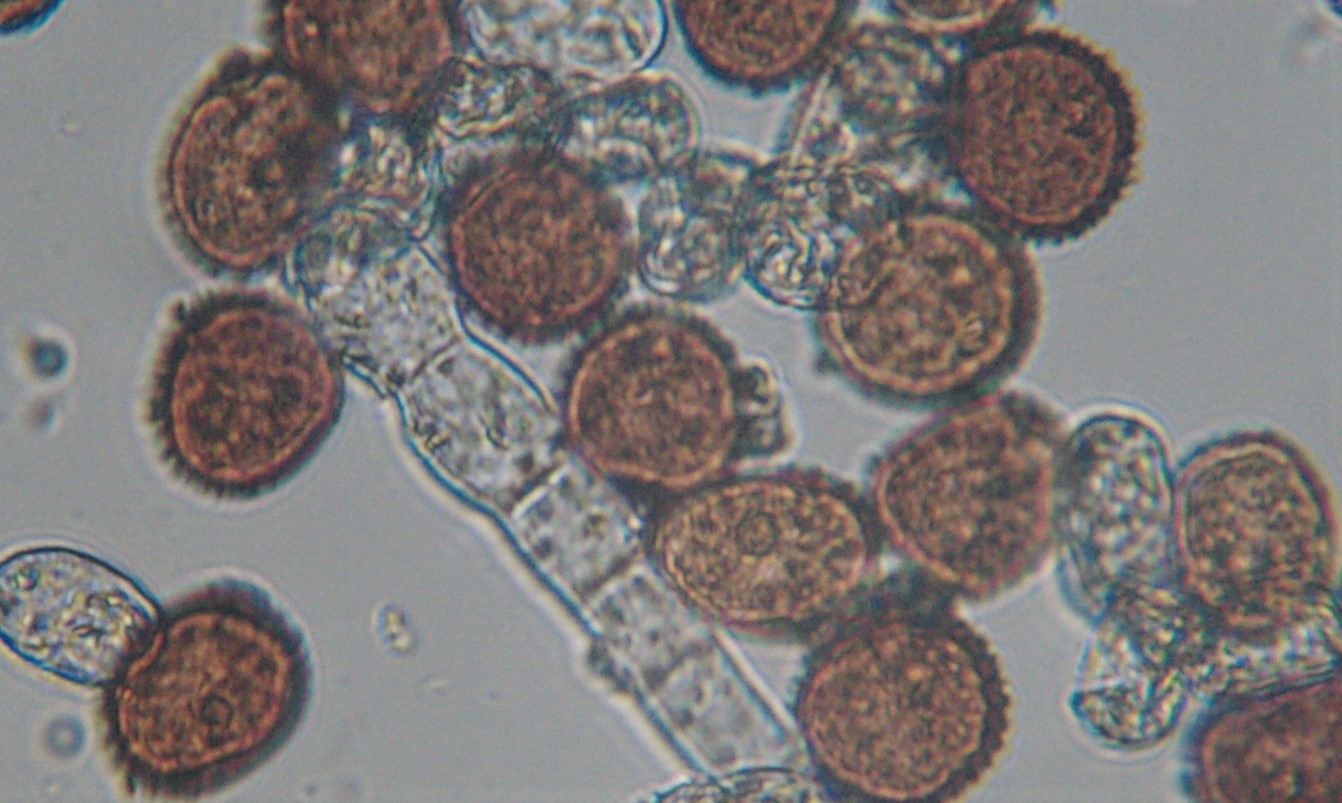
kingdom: Fungi
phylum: Basidiomycota
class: Pucciniomycetes
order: Pucciniales
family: Pucciniaceae
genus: Puccinia
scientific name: Puccinia hieracii
